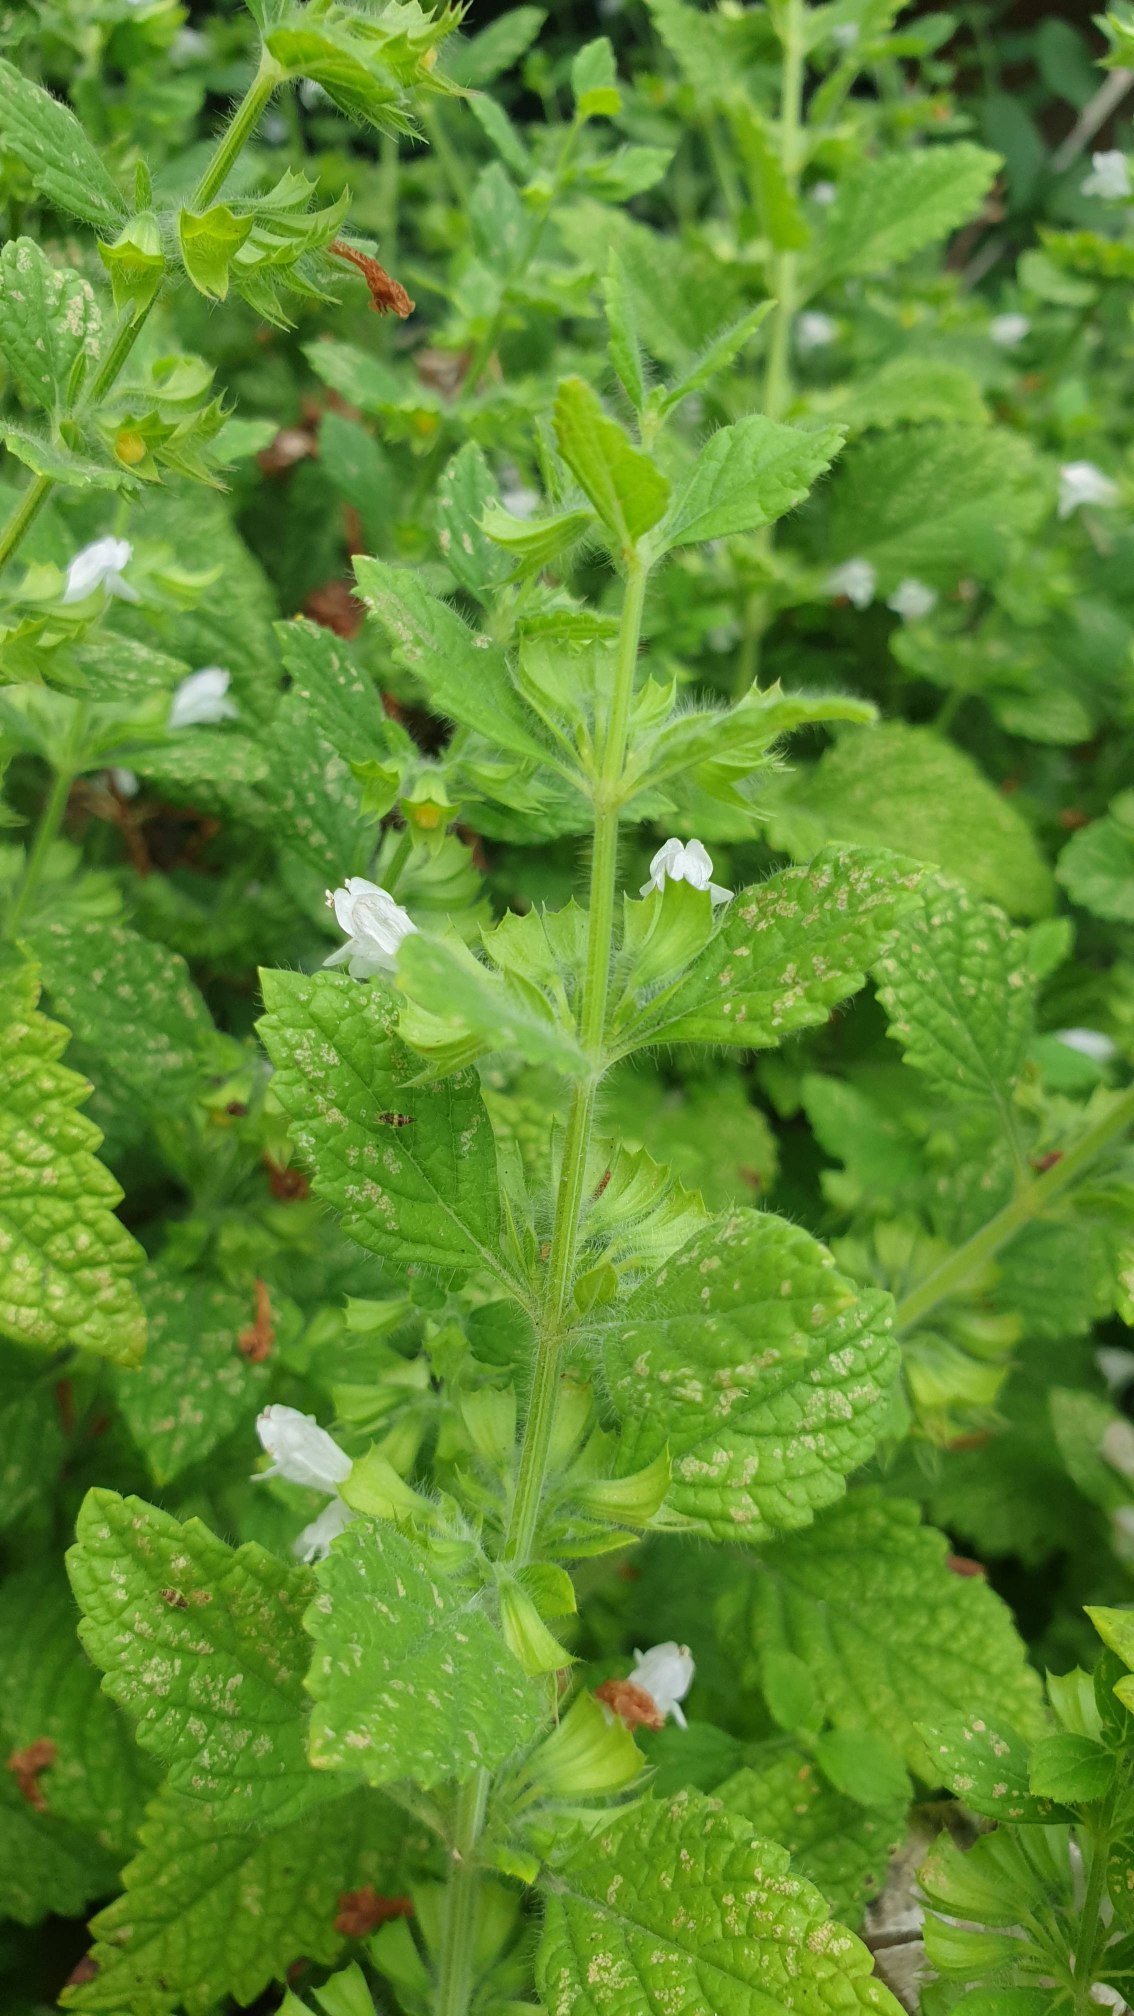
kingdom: Plantae
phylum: Tracheophyta
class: Magnoliopsida
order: Lamiales
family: Lamiaceae
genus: Melissa
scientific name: Melissa officinalis
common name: Citronmelisse
